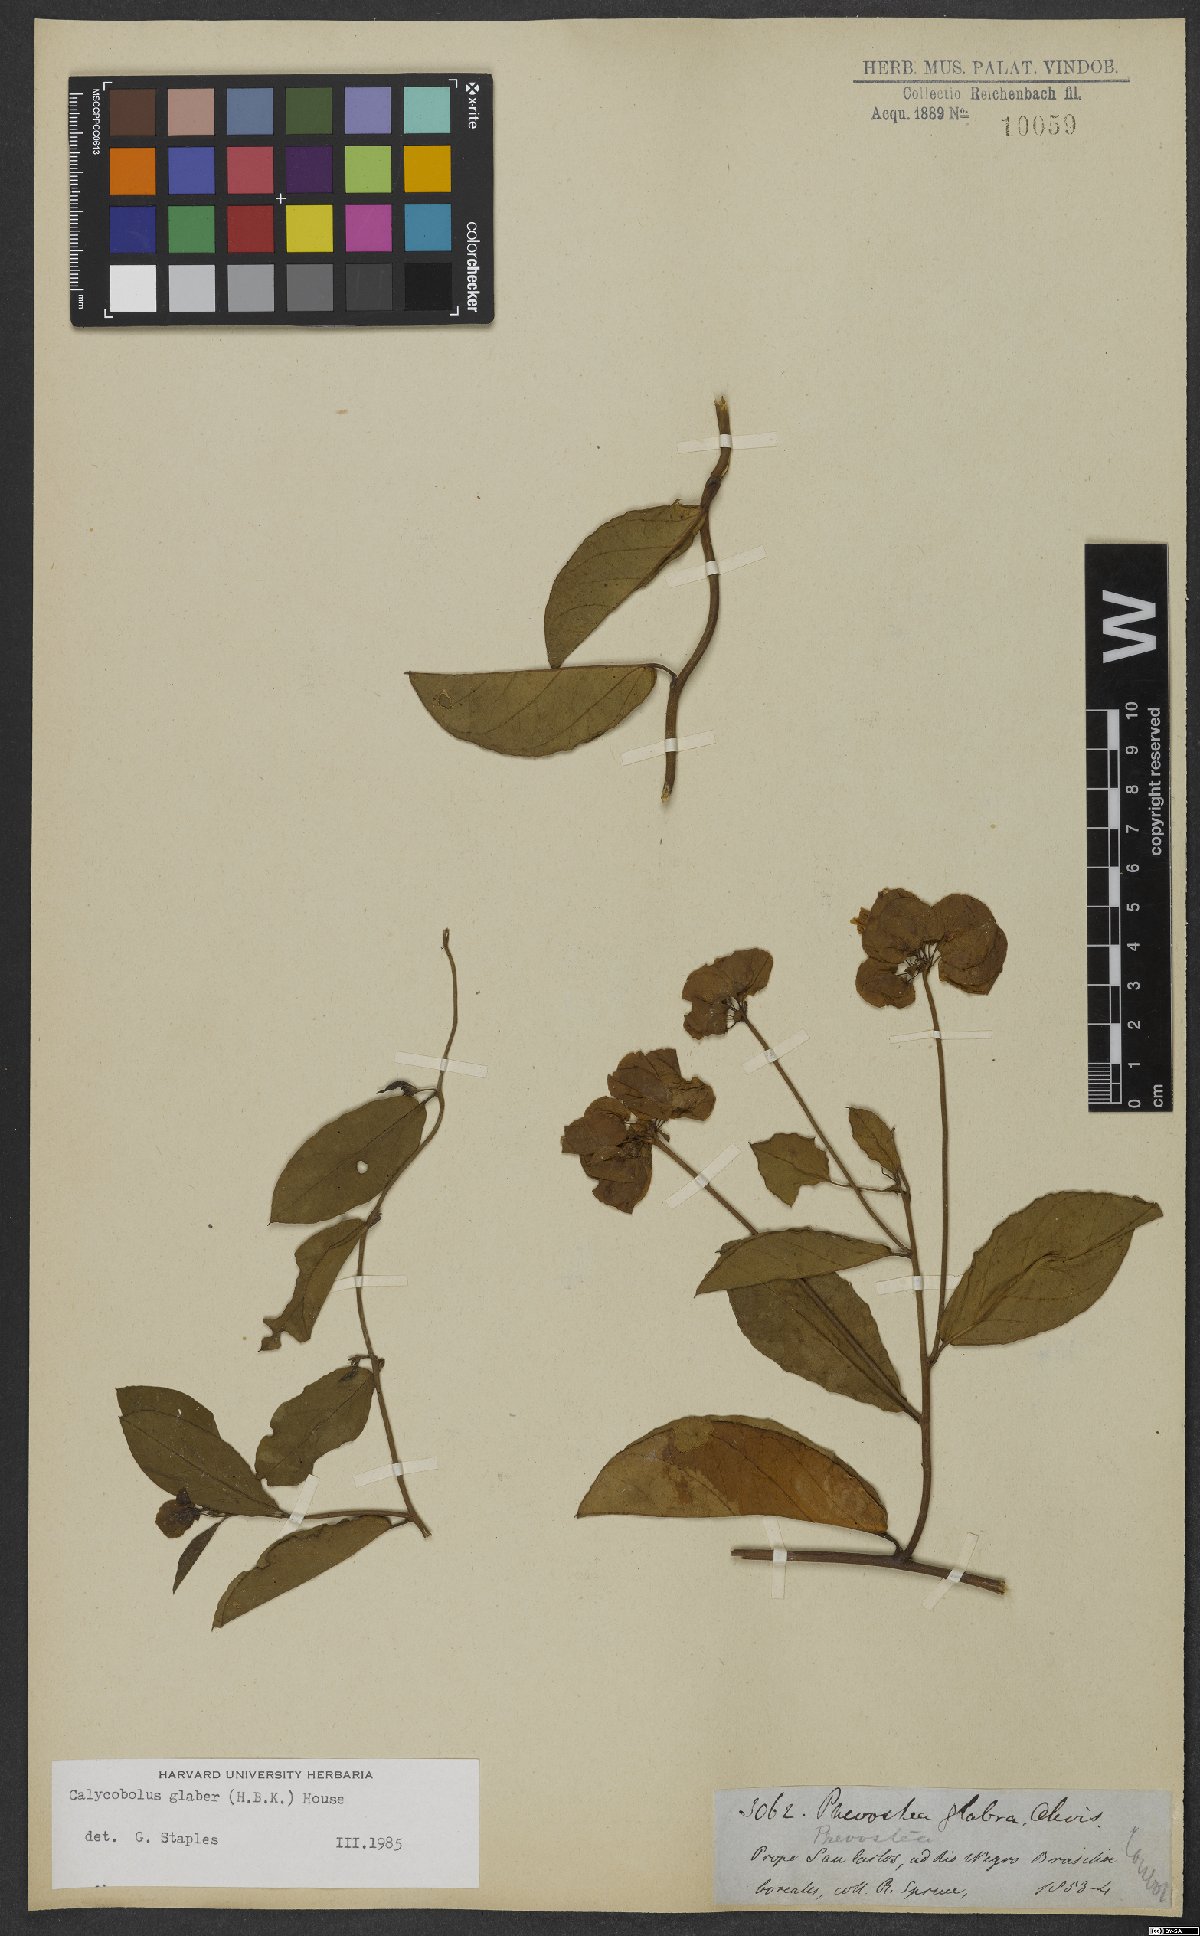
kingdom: Plantae
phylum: Tracheophyta
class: Magnoliopsida
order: Solanales
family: Convolvulaceae
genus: Calycobolus
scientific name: Calycobolus glaber
